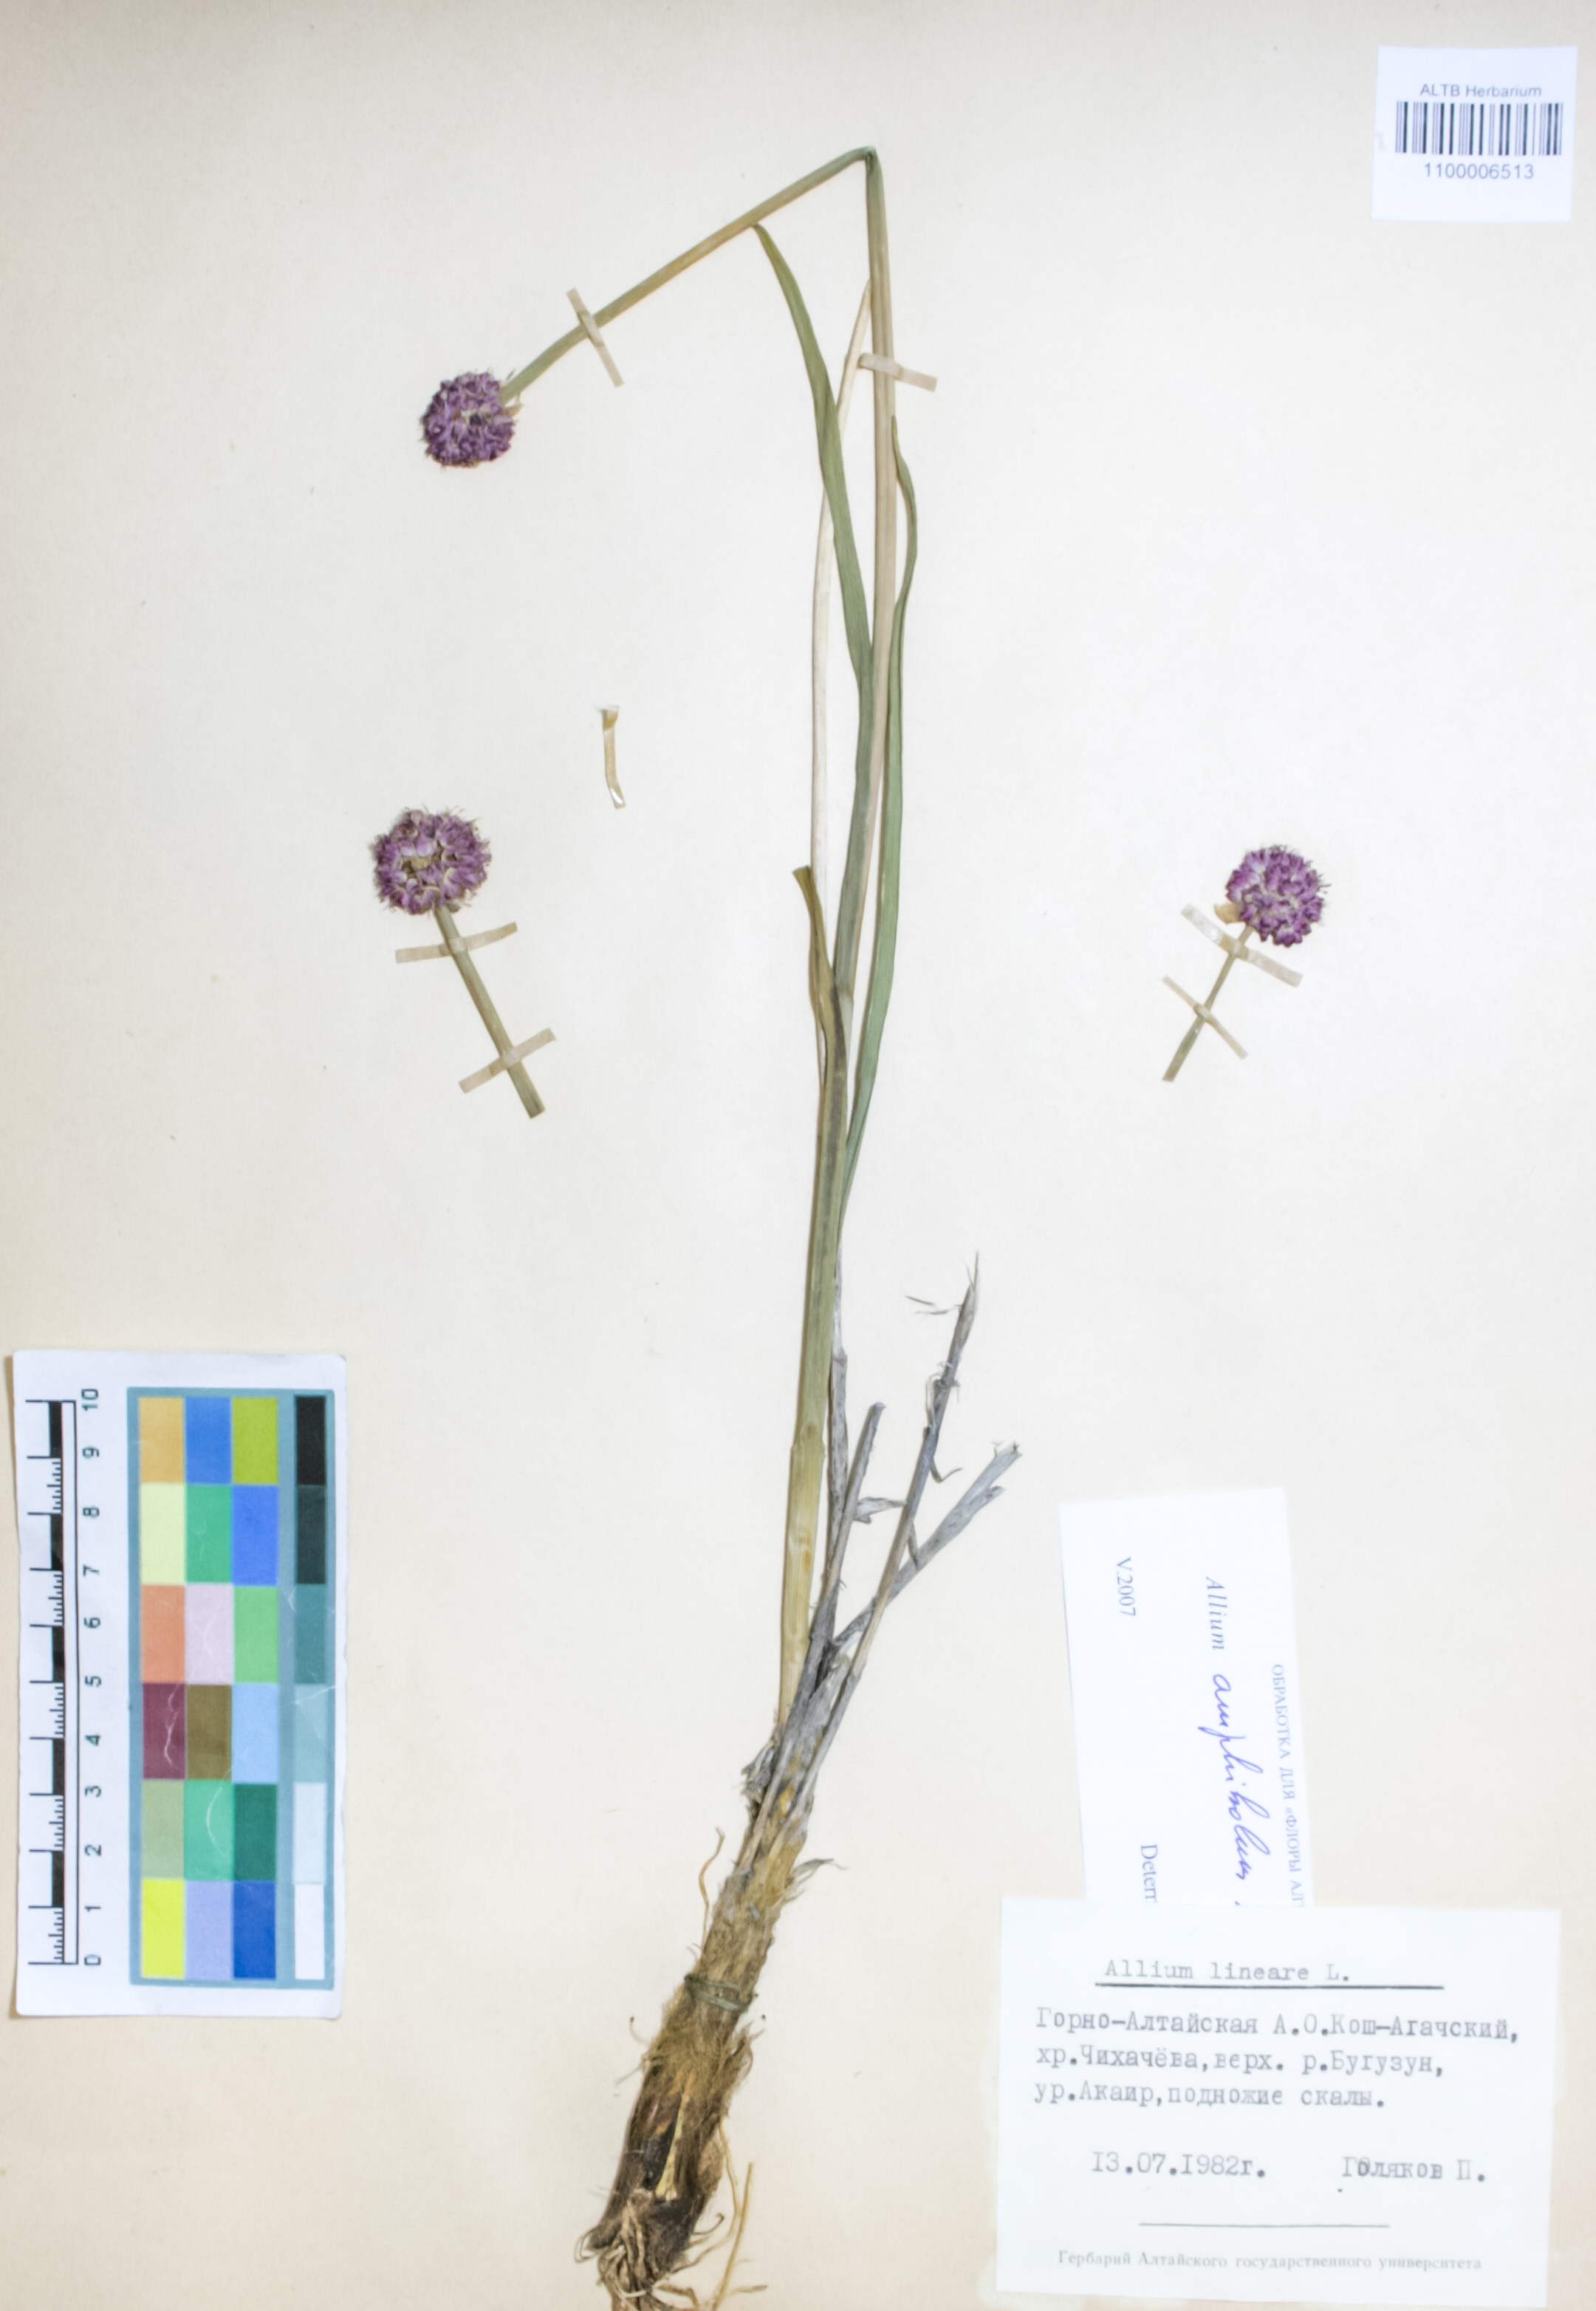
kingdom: Plantae
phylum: Tracheophyta
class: Liliopsida
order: Asparagales
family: Amaryllidaceae
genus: Allium
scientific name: Allium lineare
